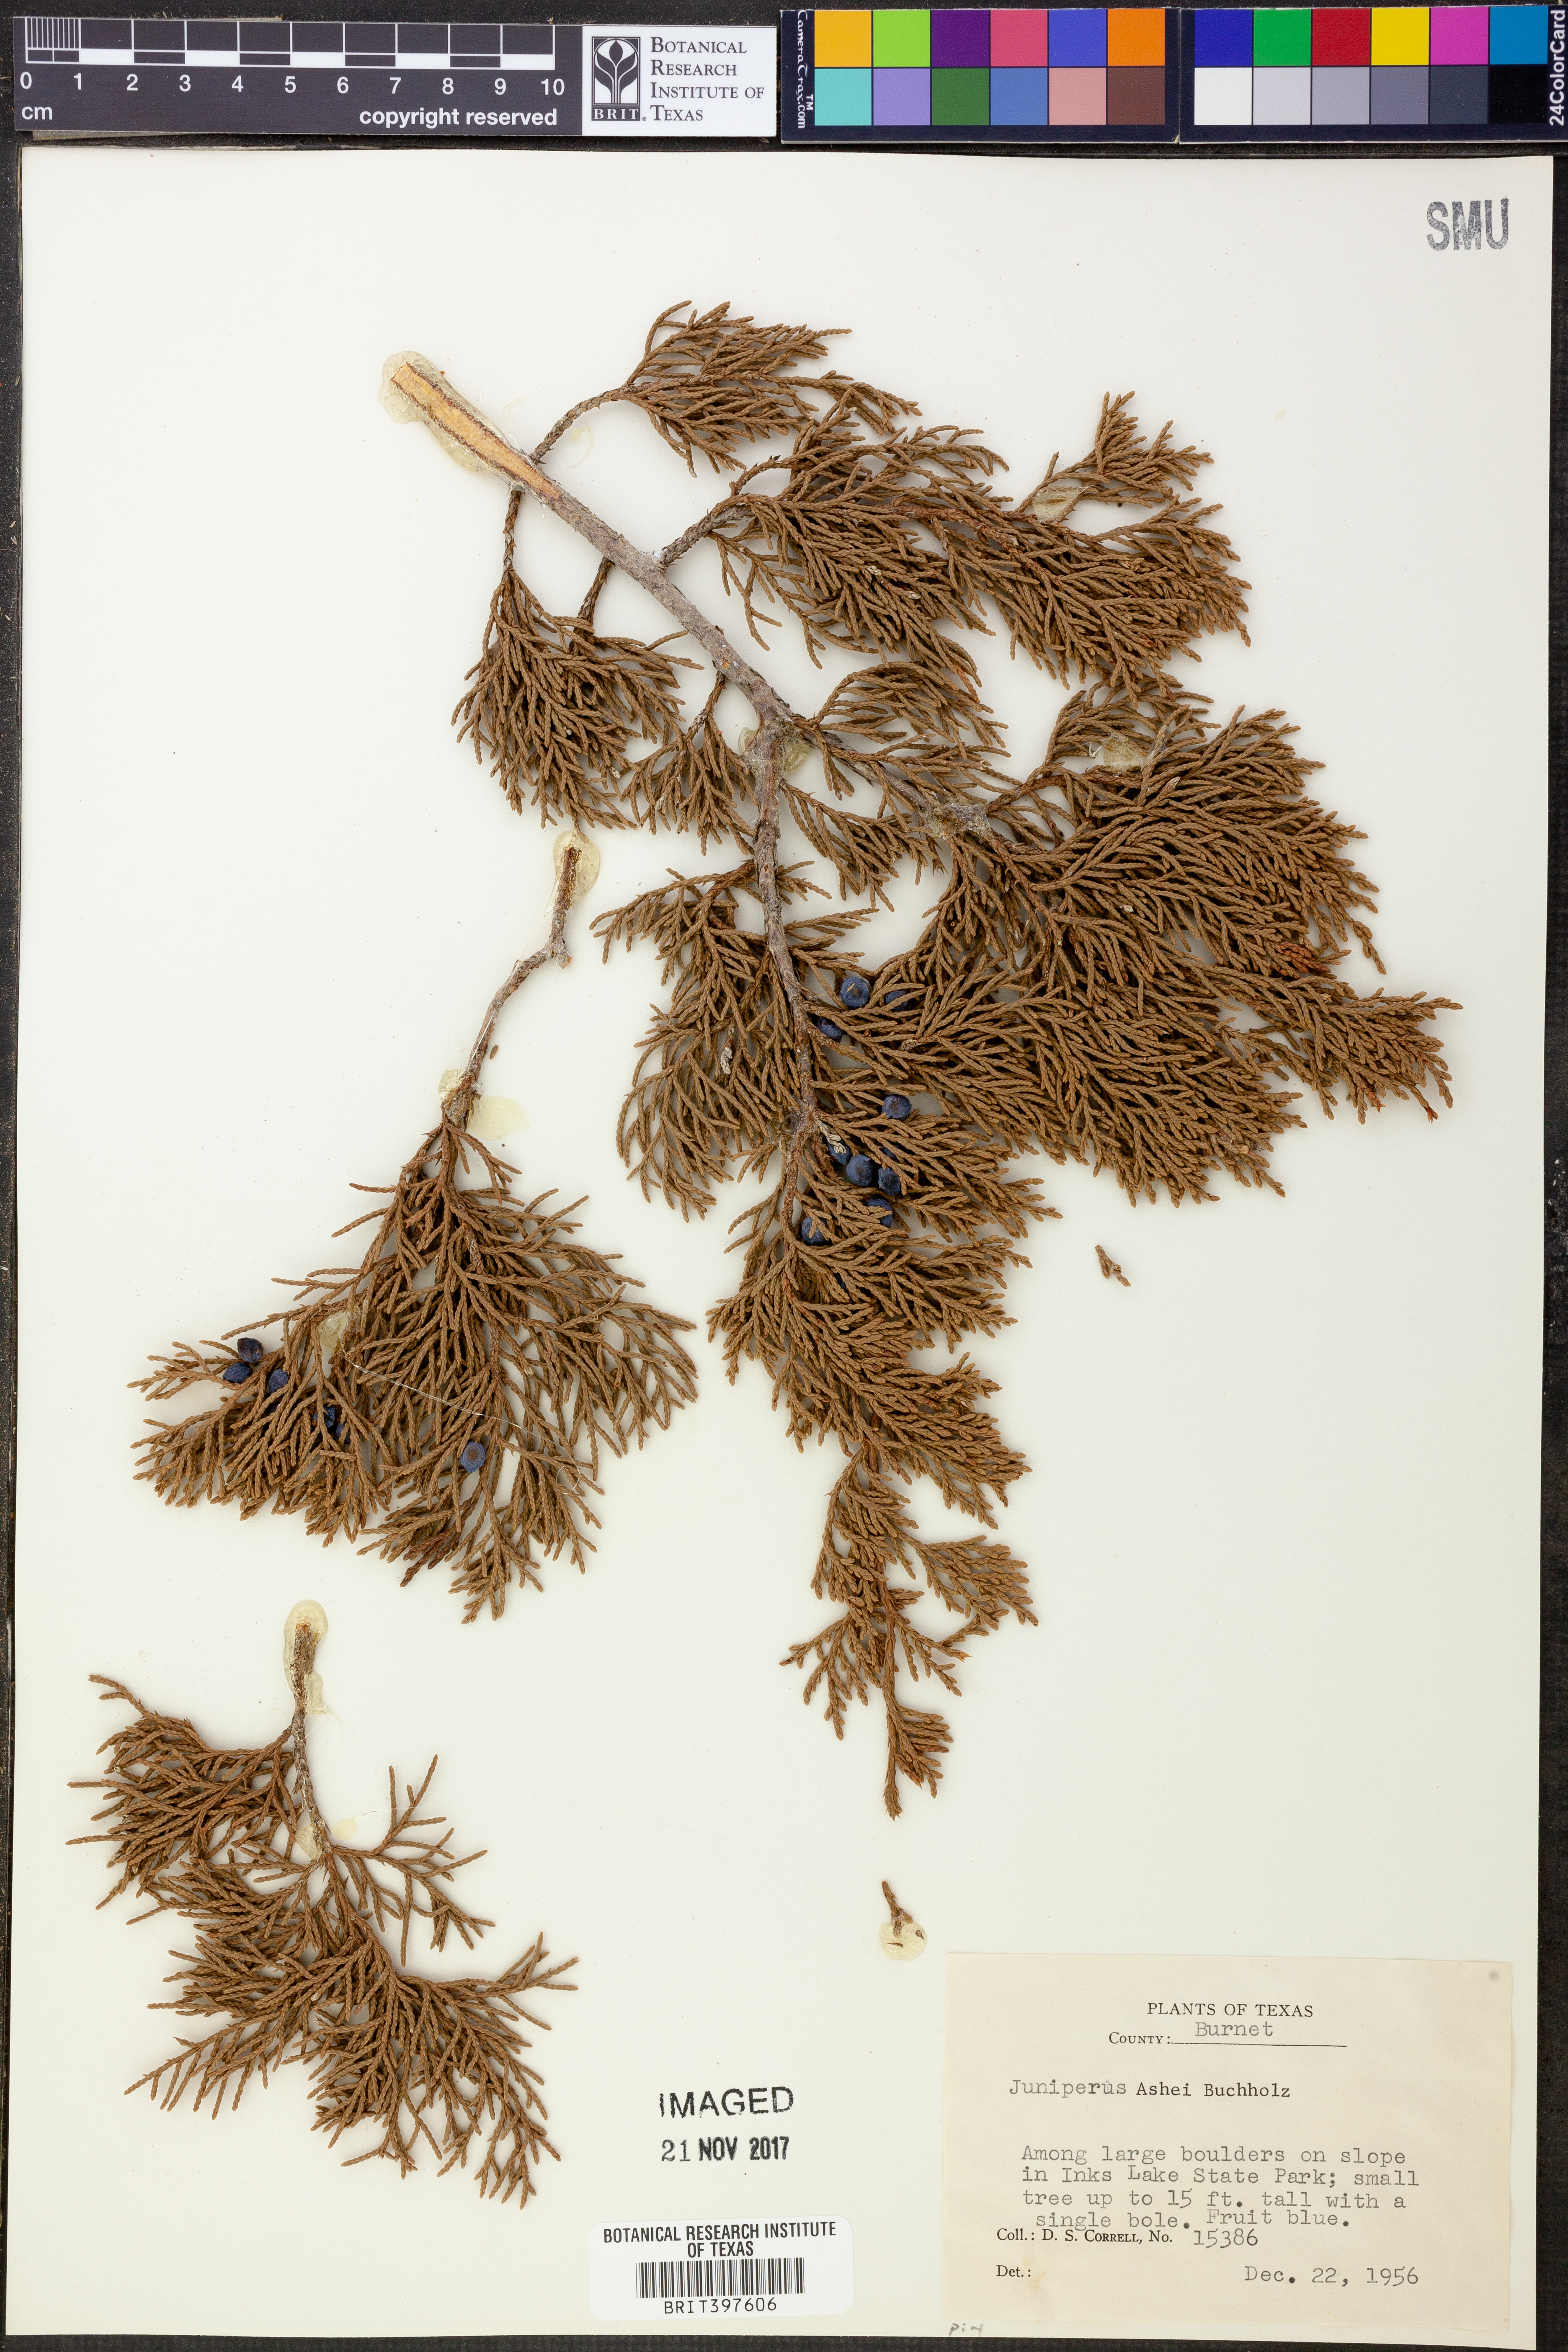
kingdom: Plantae
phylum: Tracheophyta
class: Pinopsida
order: Pinales
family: Cupressaceae
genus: Juniperus
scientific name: Juniperus ashei
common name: Mexican juniper
